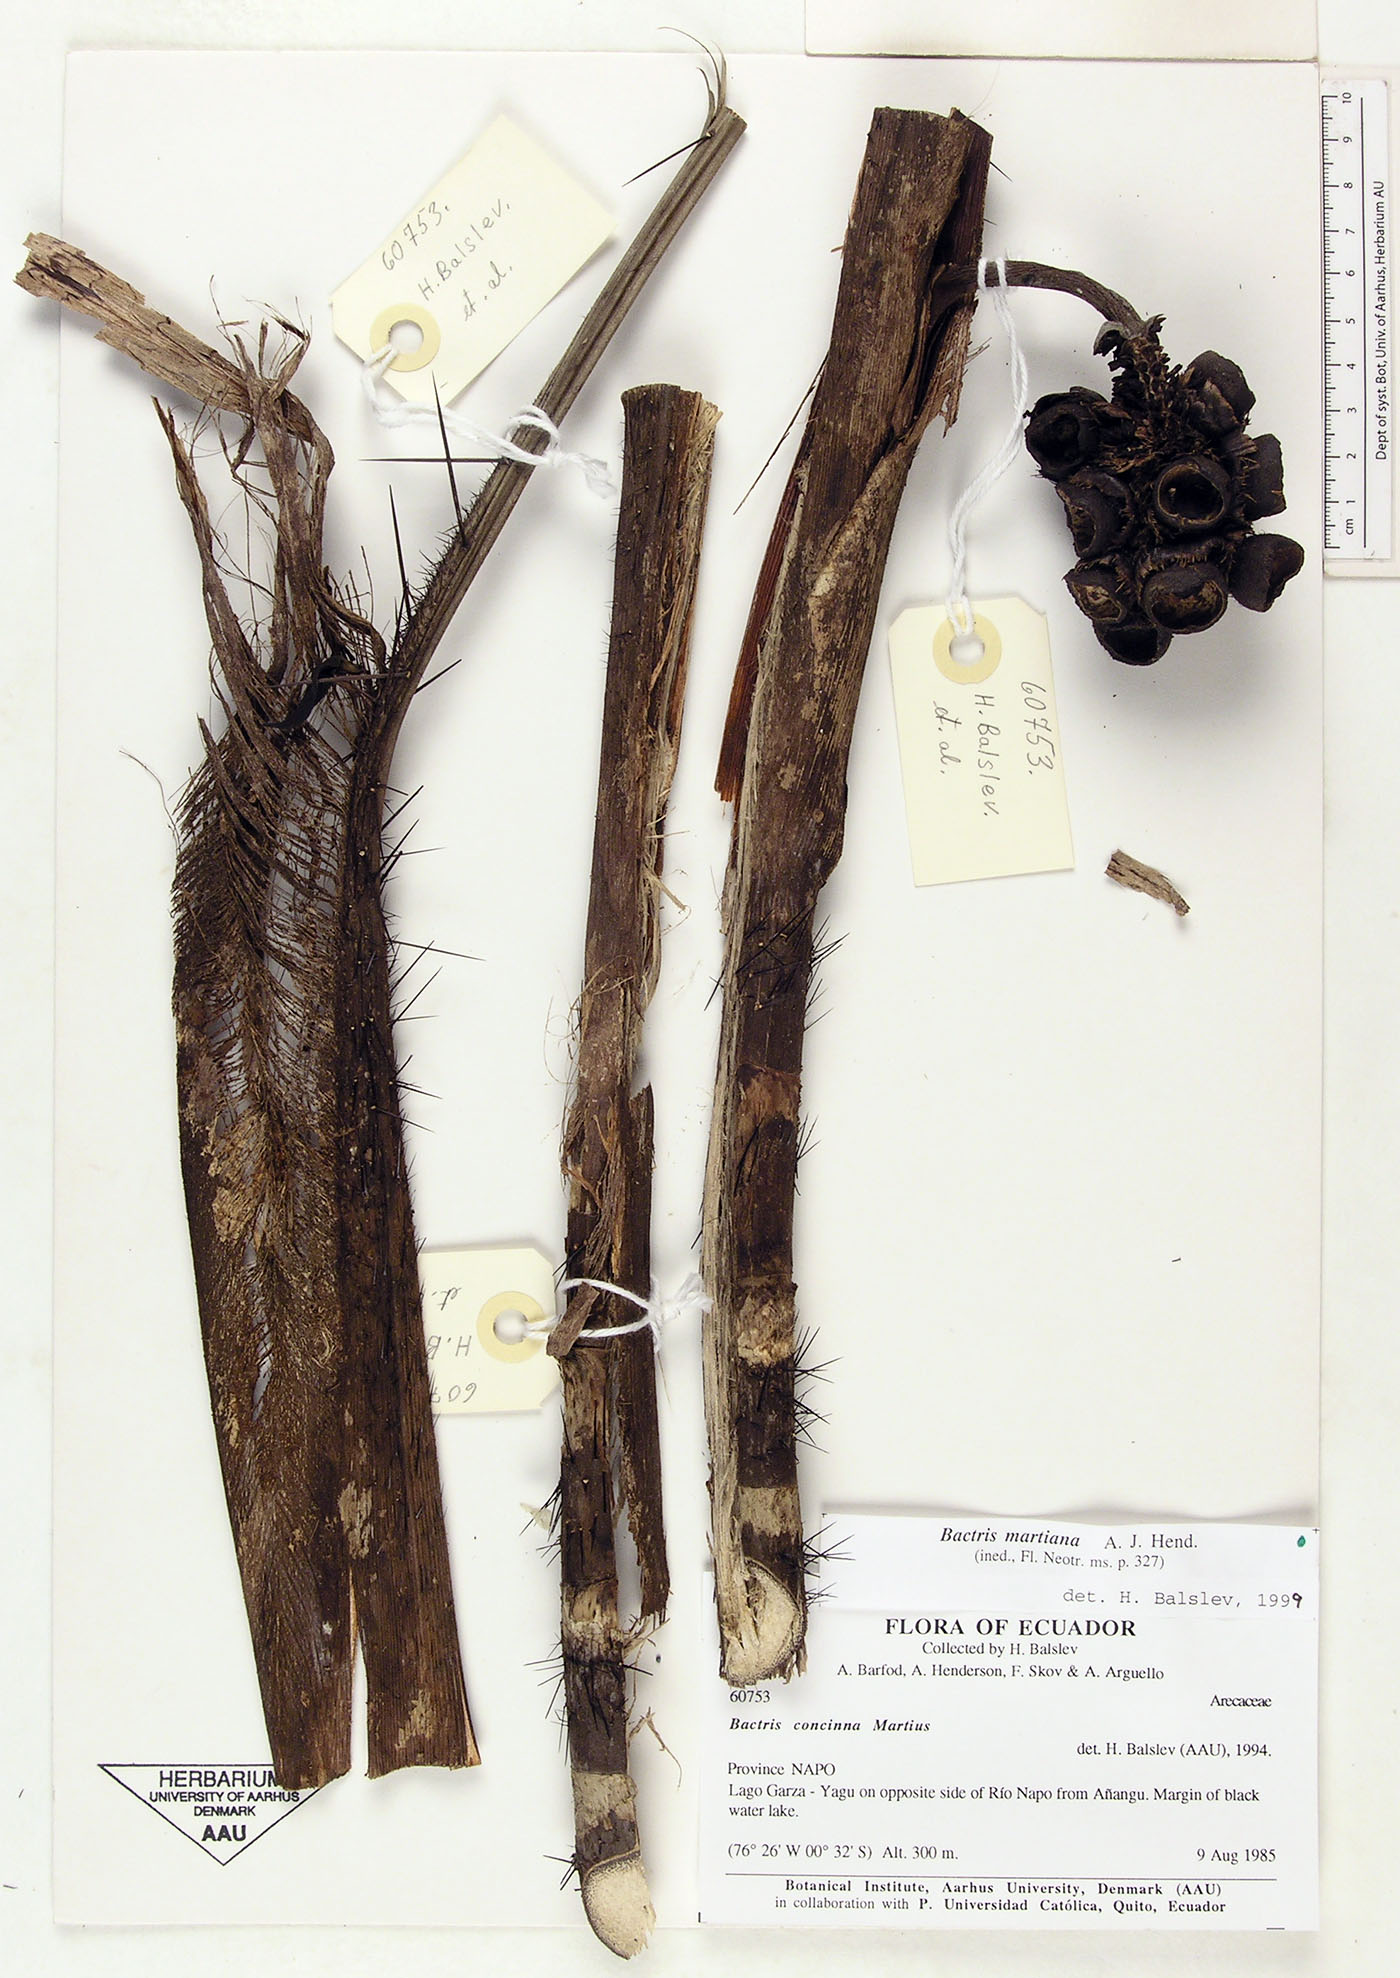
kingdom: Plantae
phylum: Tracheophyta
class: Liliopsida
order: Arecales
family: Arecaceae
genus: Bactris
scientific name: Bactris martiana
